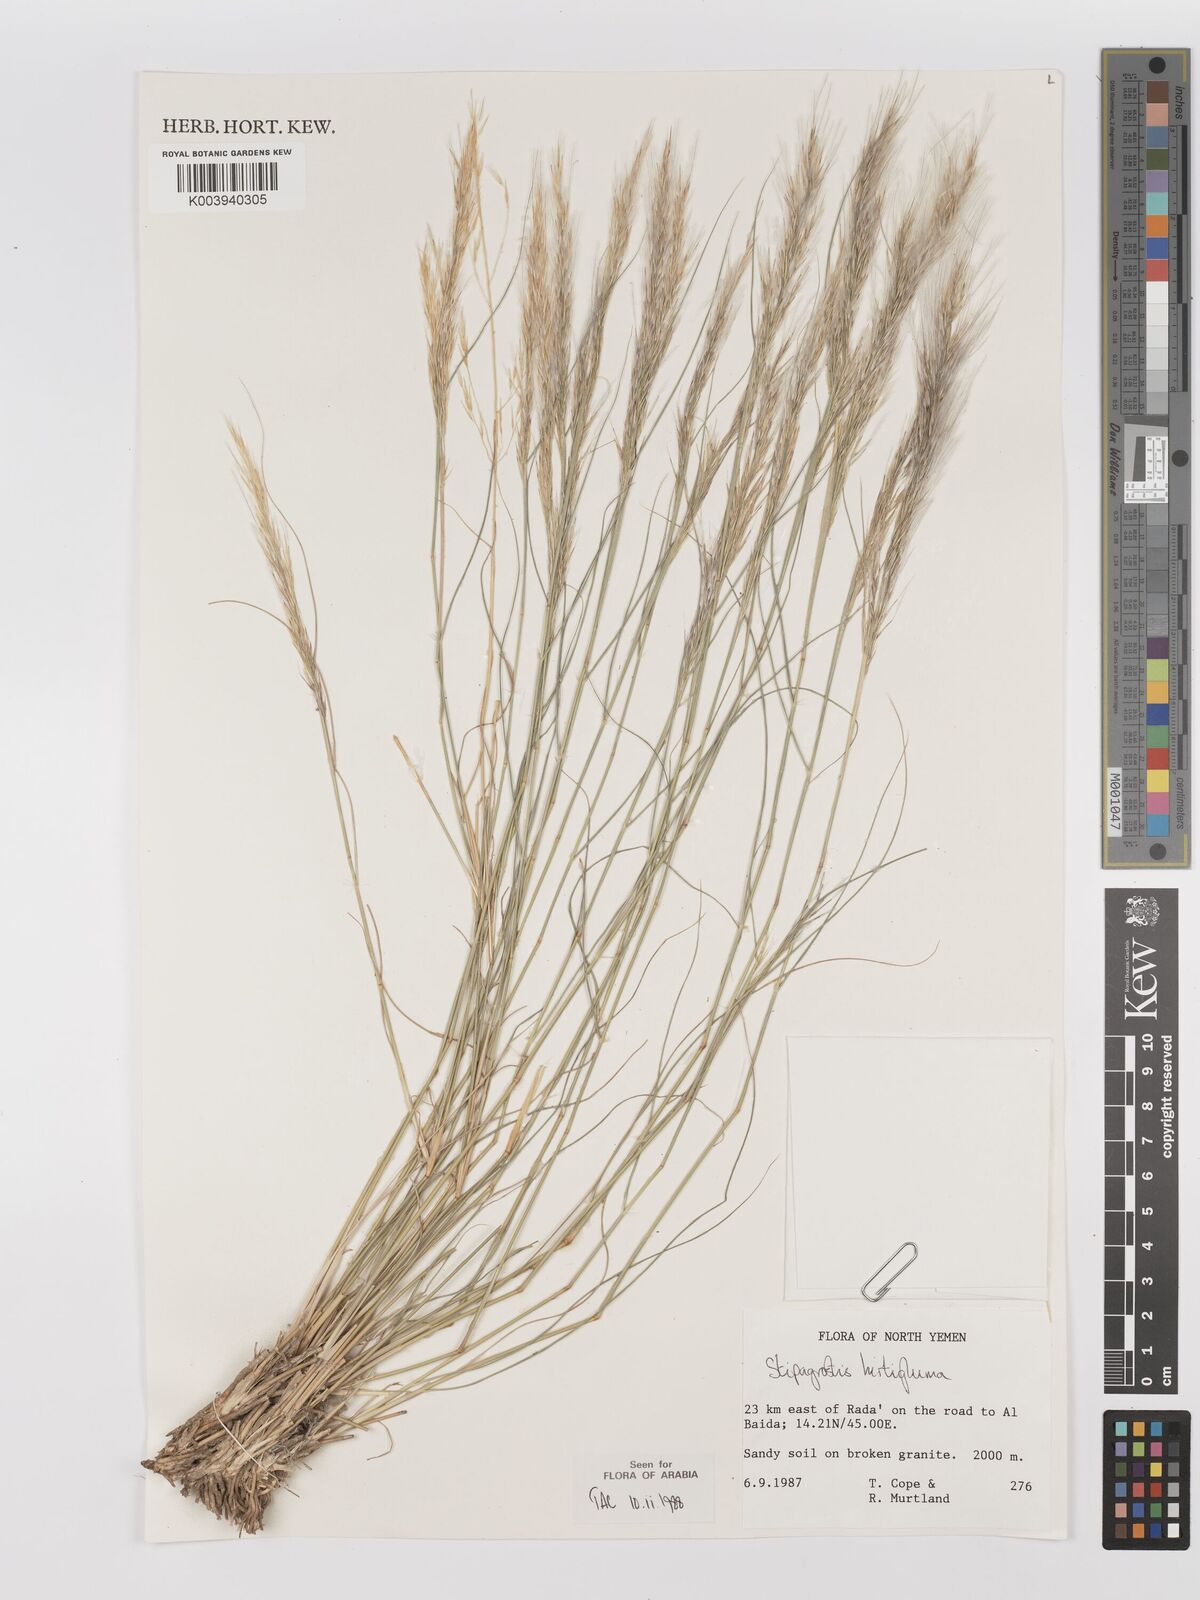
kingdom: Plantae
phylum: Tracheophyta
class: Liliopsida
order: Poales
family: Poaceae
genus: Stipagrostis
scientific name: Stipagrostis hirtigluma
